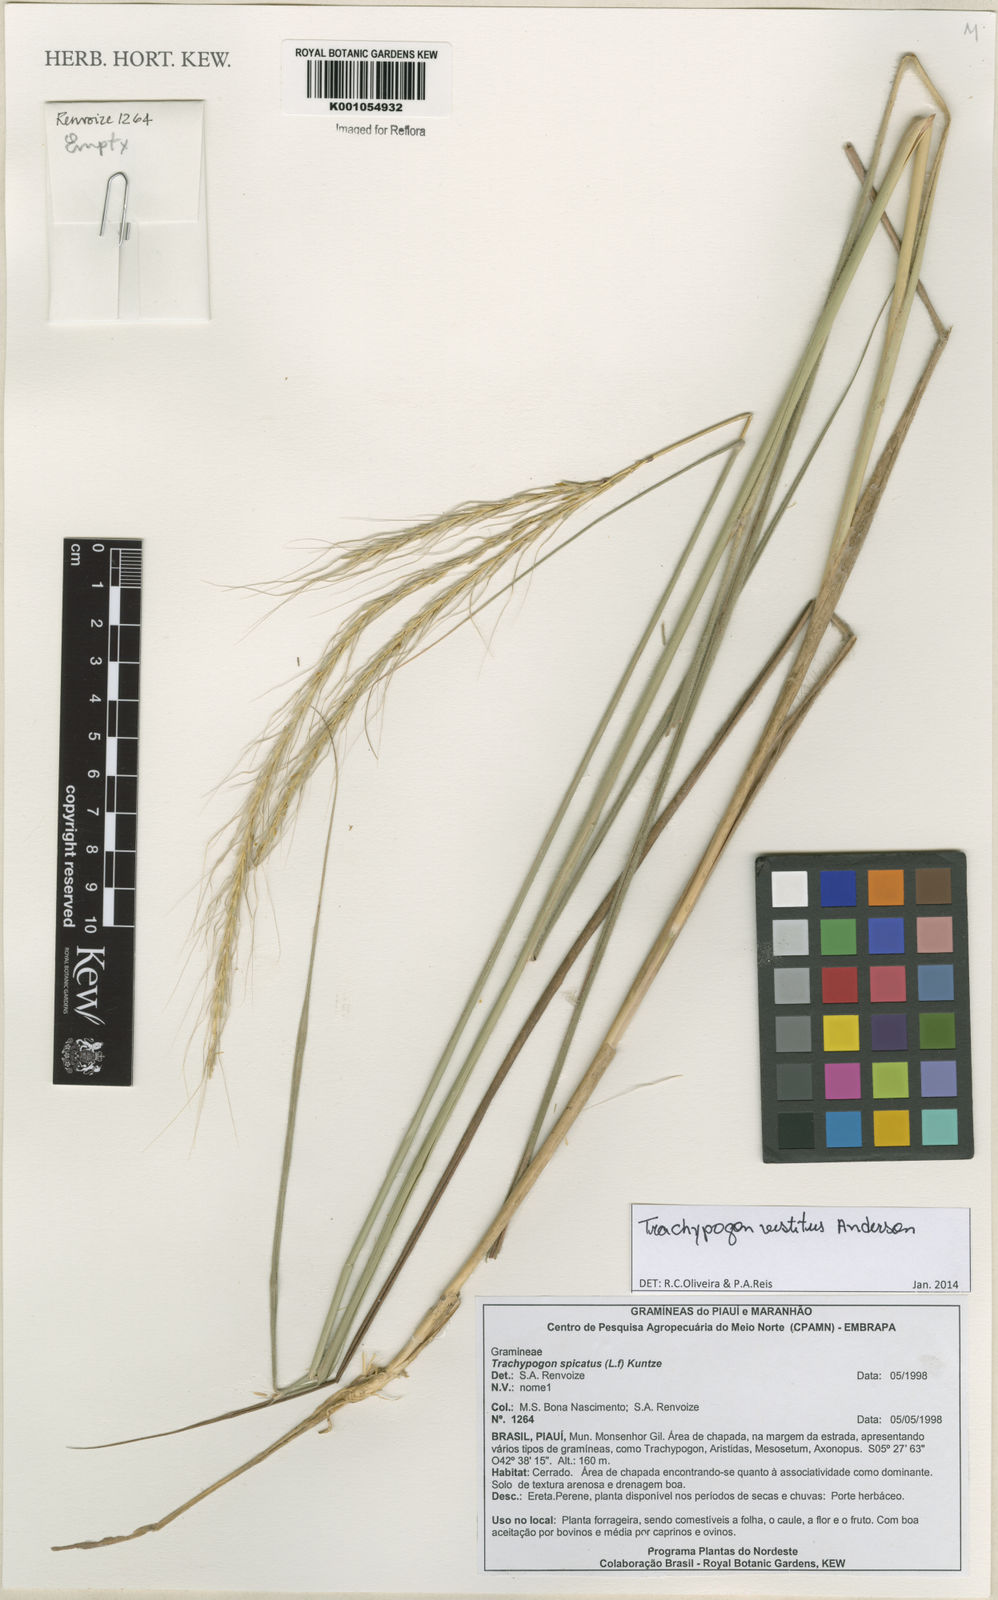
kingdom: Plantae
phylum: Tracheophyta
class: Liliopsida
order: Poales
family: Poaceae
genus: Trachypogon
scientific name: Trachypogon vestitus
